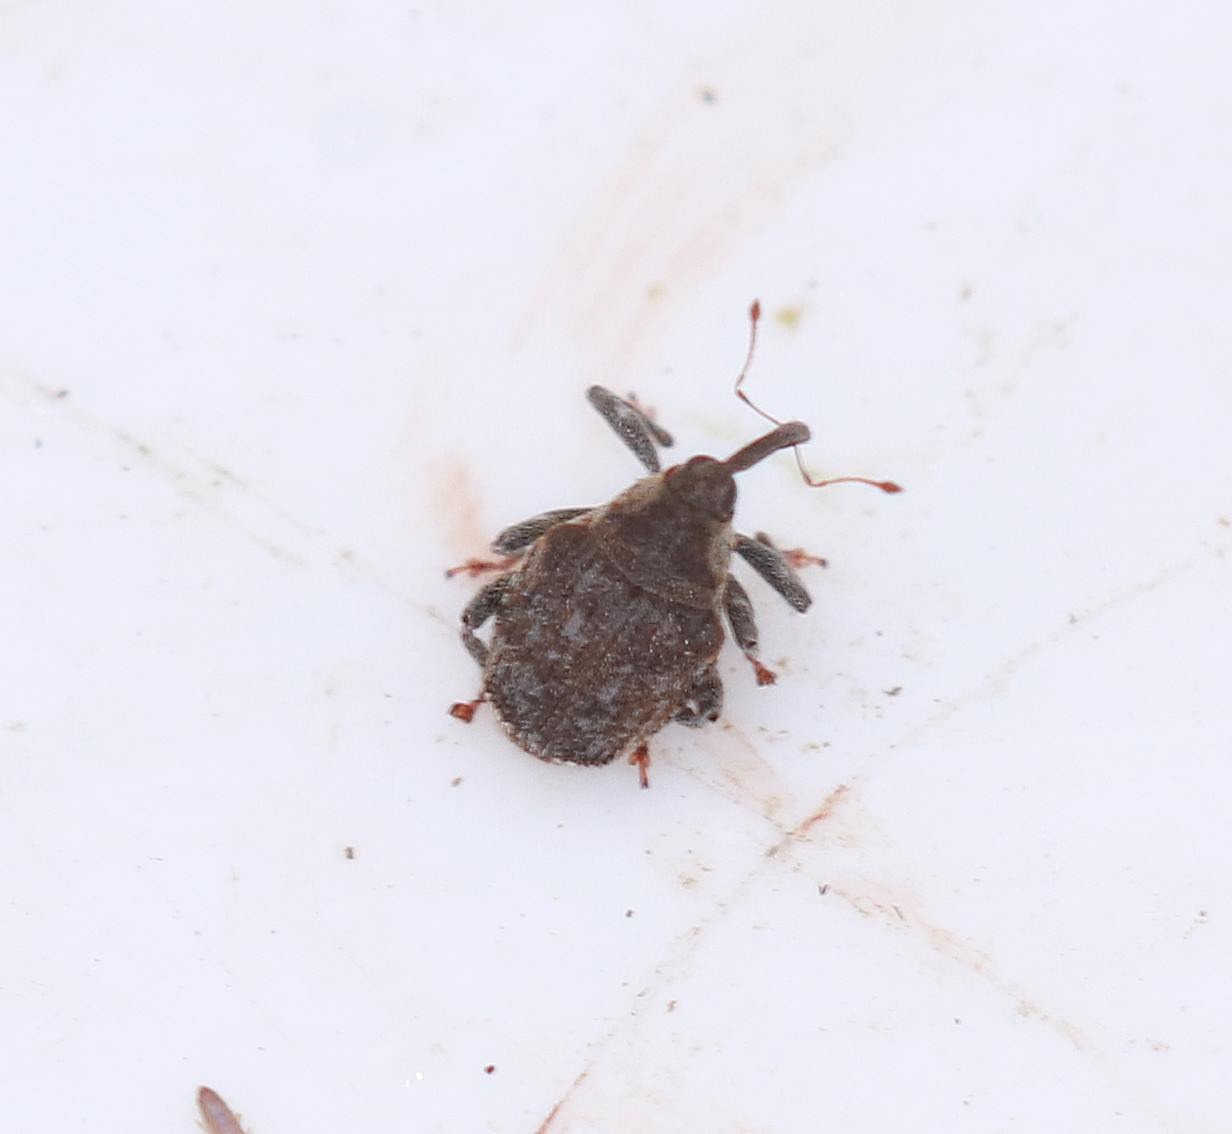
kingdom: Animalia
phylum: Arthropoda
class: Insecta
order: Coleoptera
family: Curculionidae
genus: Parethelcus
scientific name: Parethelcus pollinarius
